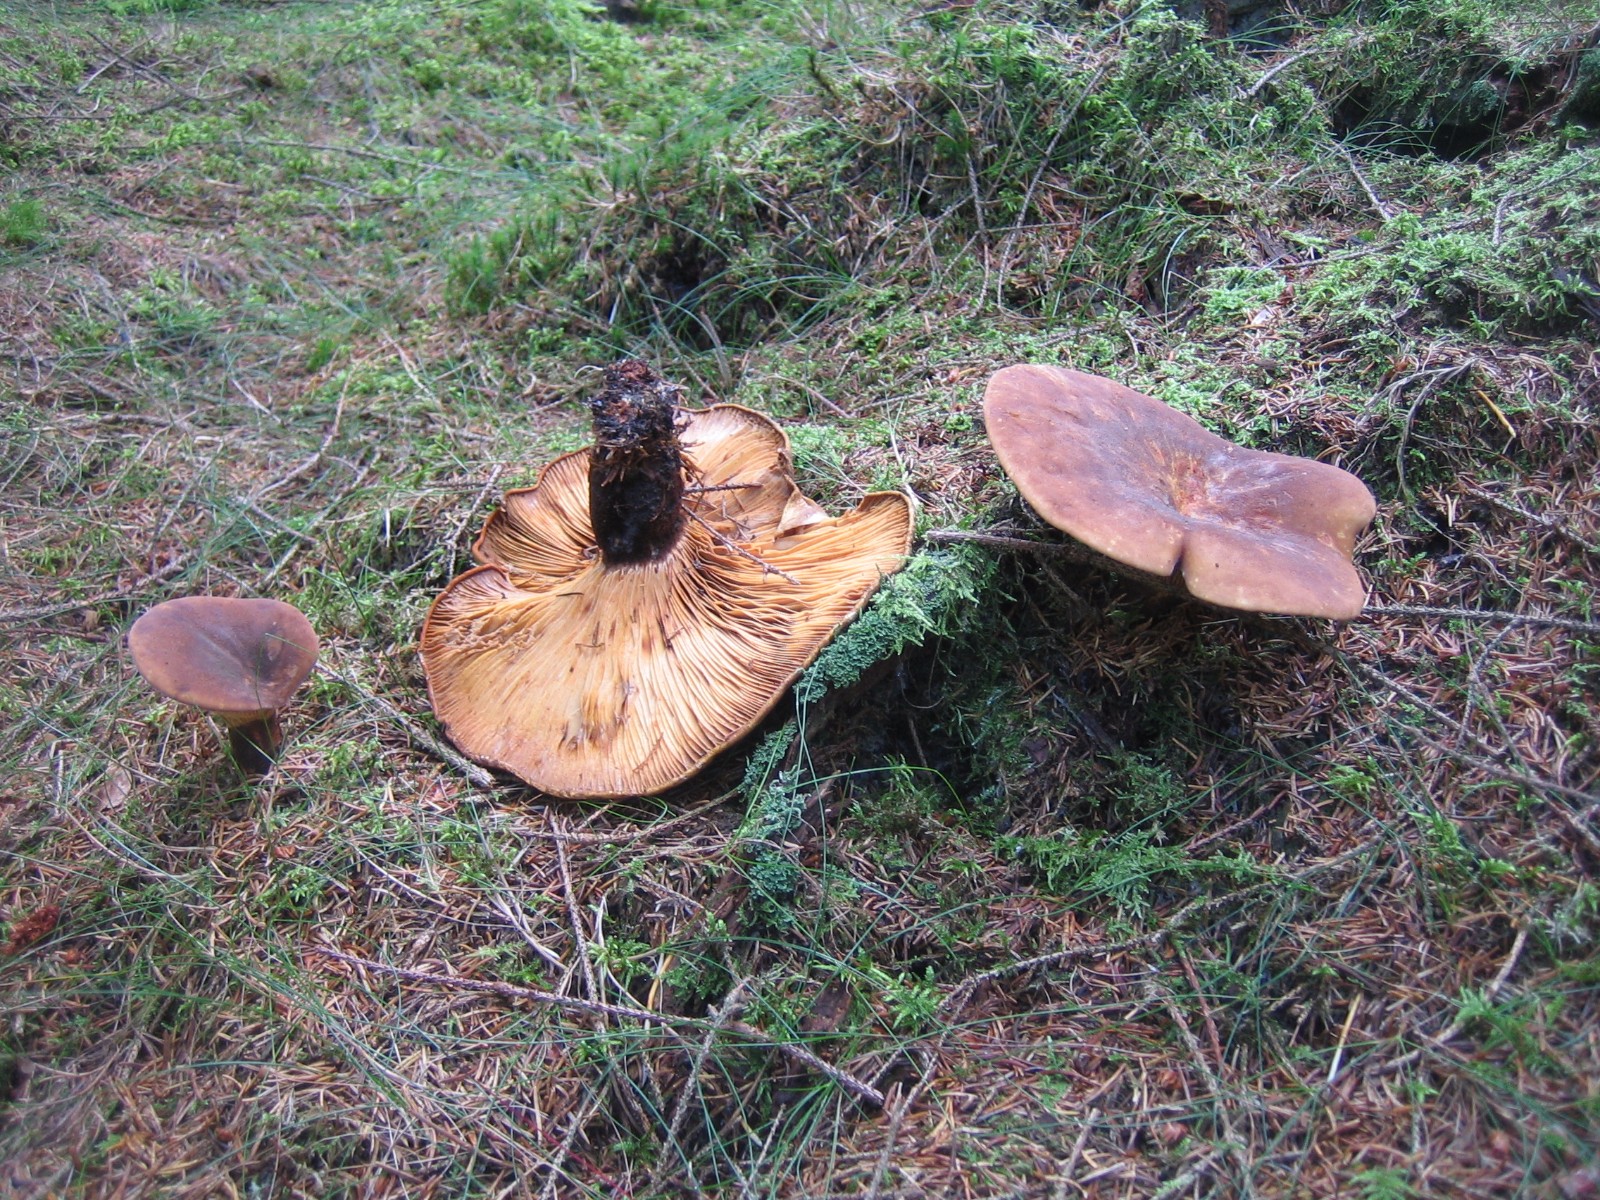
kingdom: Fungi
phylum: Basidiomycota
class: Agaricomycetes
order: Boletales
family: Tapinellaceae
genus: Tapinella
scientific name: Tapinella atrotomentosa
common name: sortfiltet viftesvamp
